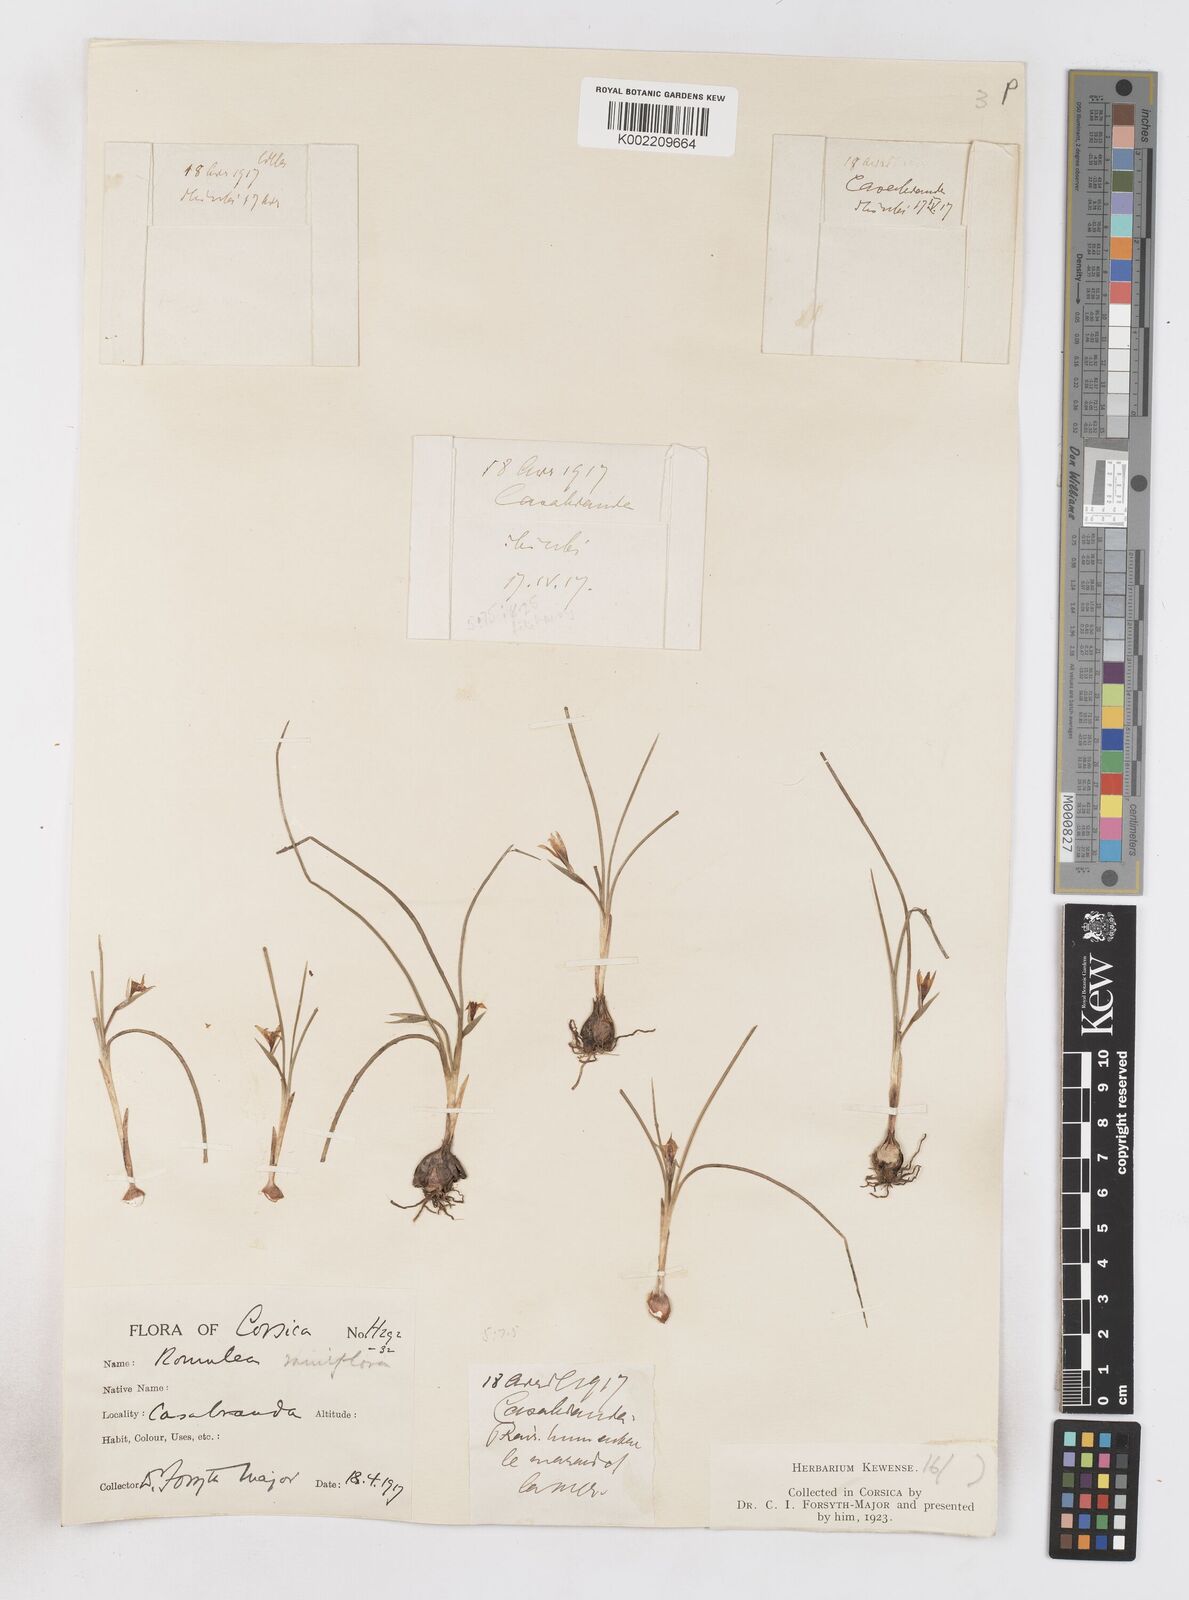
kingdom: Plantae
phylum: Tracheophyta
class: Liliopsida
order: Asparagales
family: Iridaceae
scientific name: Iridaceae
